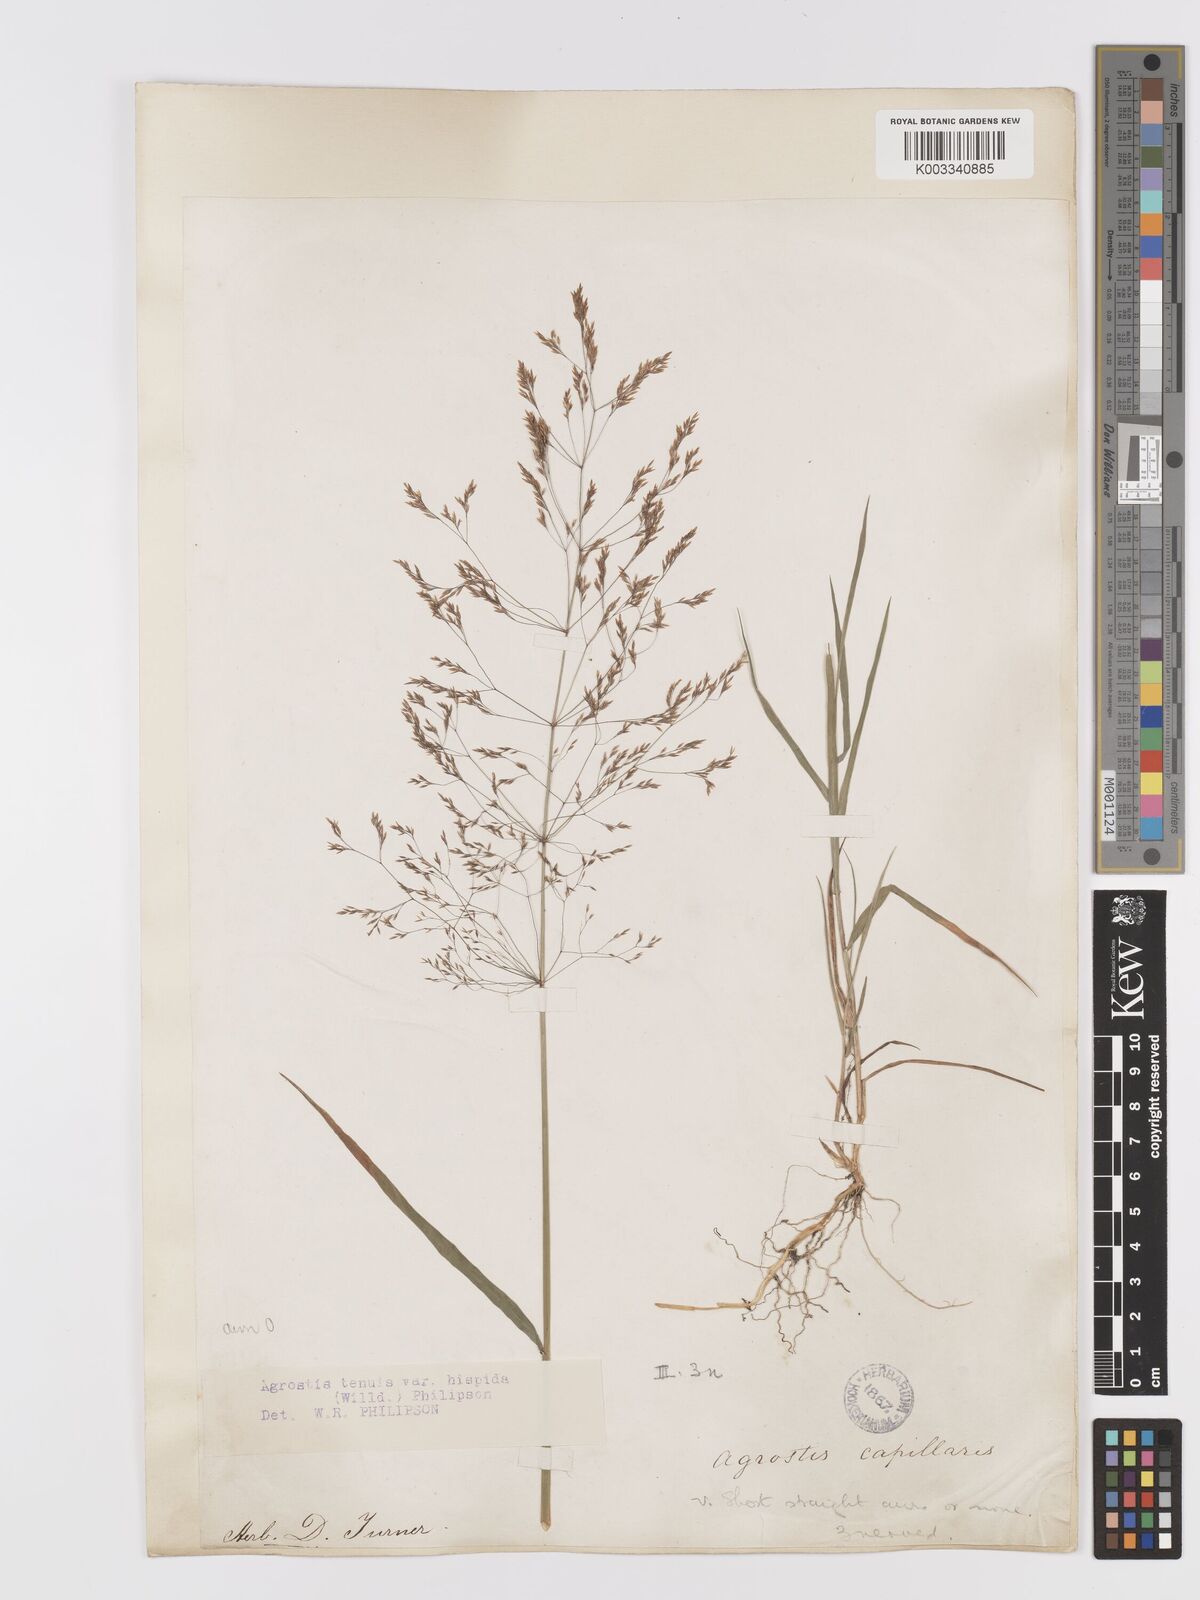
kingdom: Plantae
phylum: Tracheophyta
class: Liliopsida
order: Poales
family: Poaceae
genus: Agrostis
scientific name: Agrostis capillaris
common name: Colonial bentgrass
